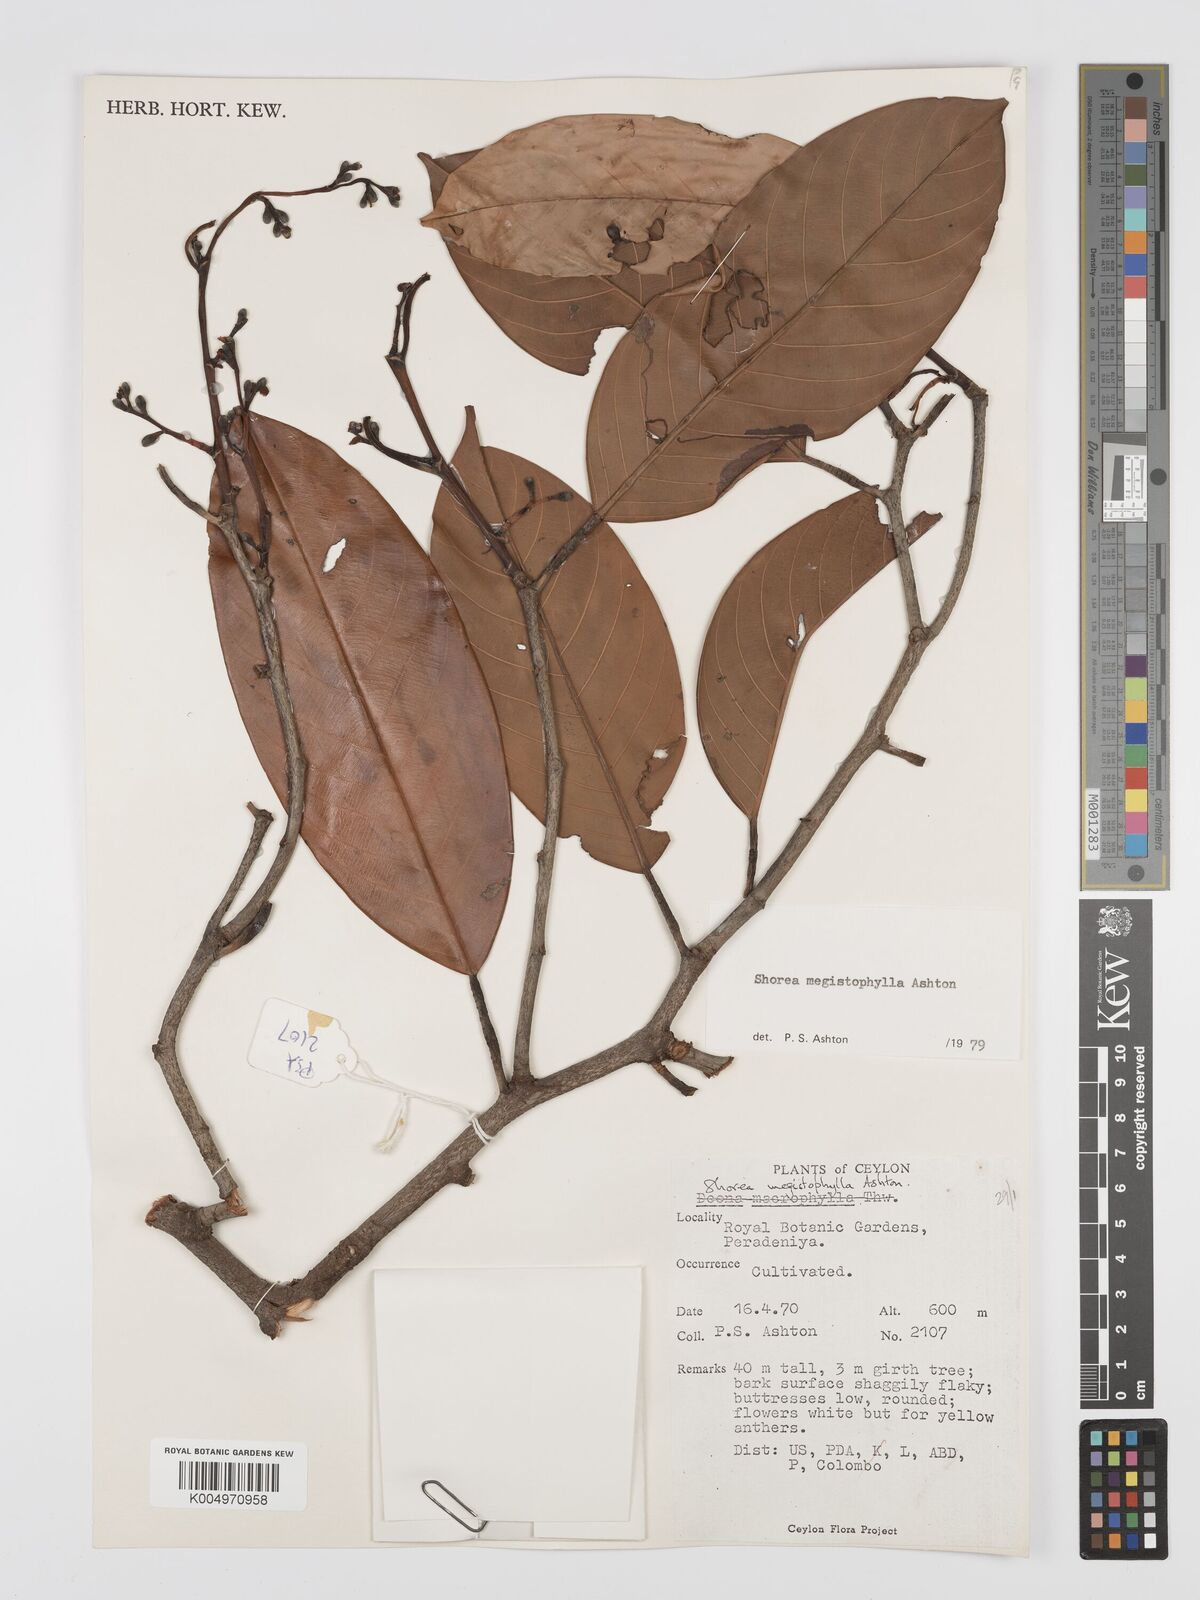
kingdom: Plantae
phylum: Tracheophyta
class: Magnoliopsida
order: Malvales
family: Dipterocarpaceae
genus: Doona
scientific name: Doona macrophylla
